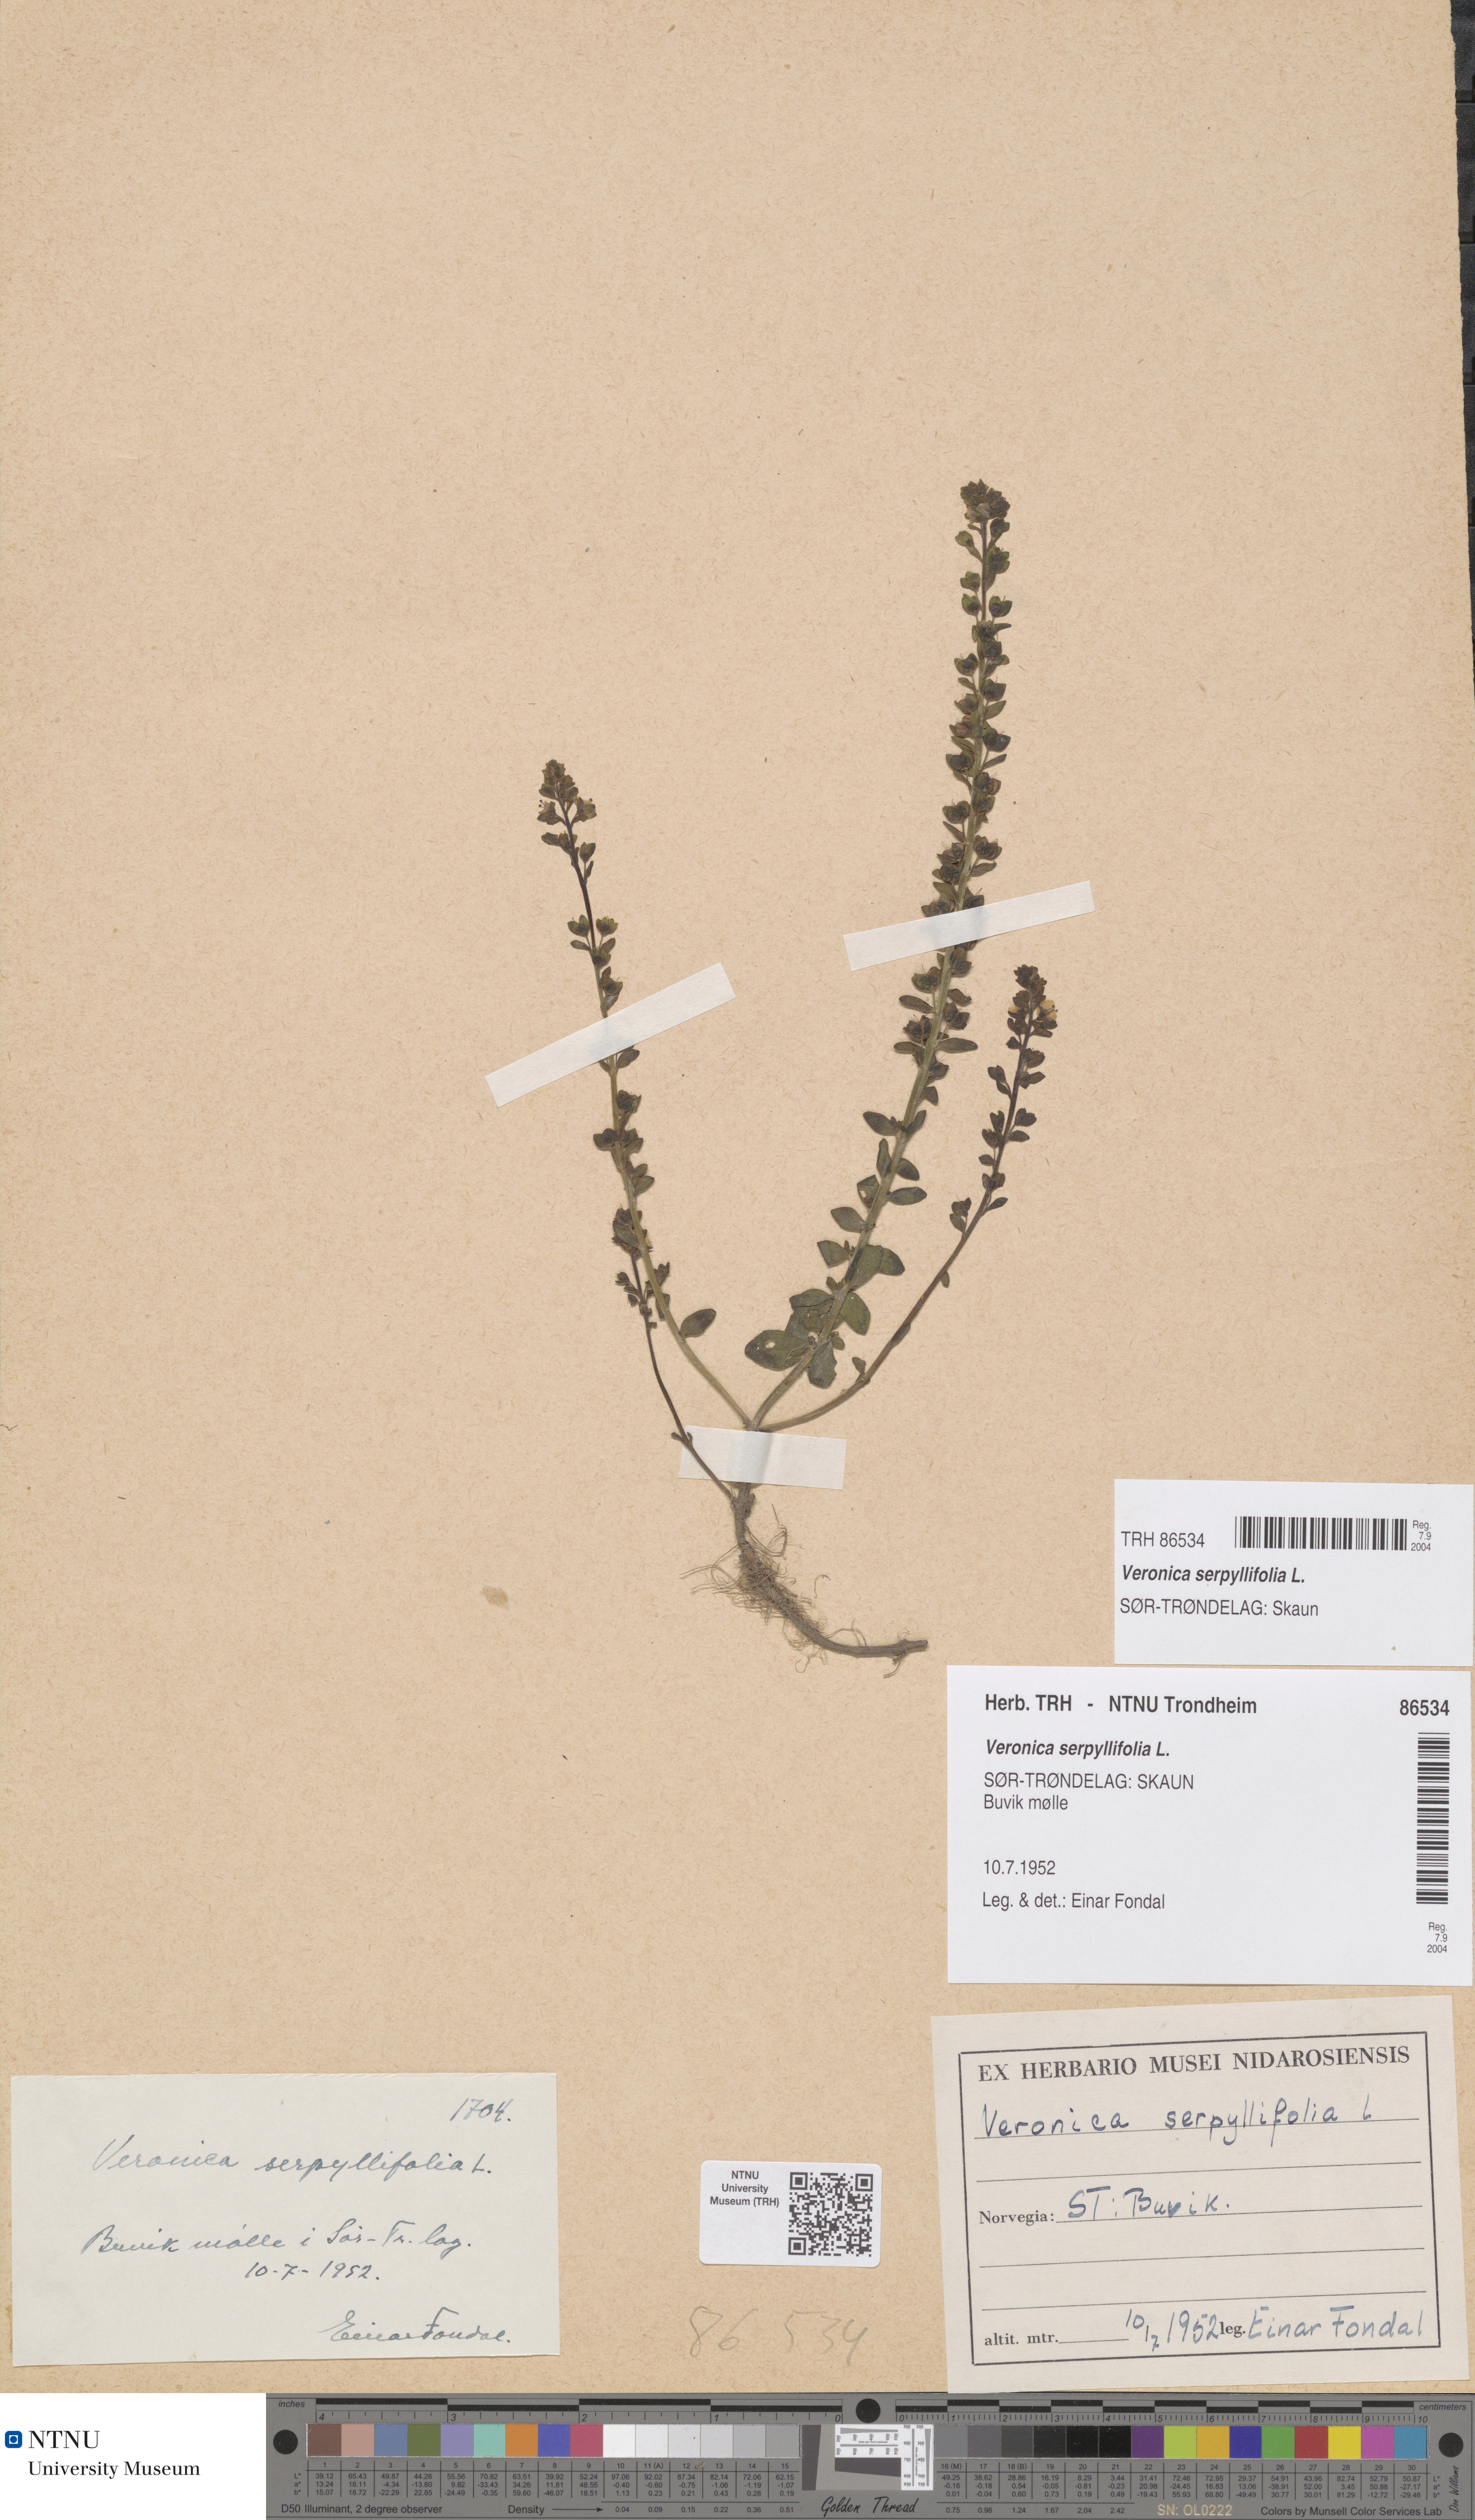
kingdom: Plantae
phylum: Tracheophyta
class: Magnoliopsida
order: Lamiales
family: Plantaginaceae
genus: Veronica
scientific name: Veronica serpyllifolia
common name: Thyme-leaved speedwell
